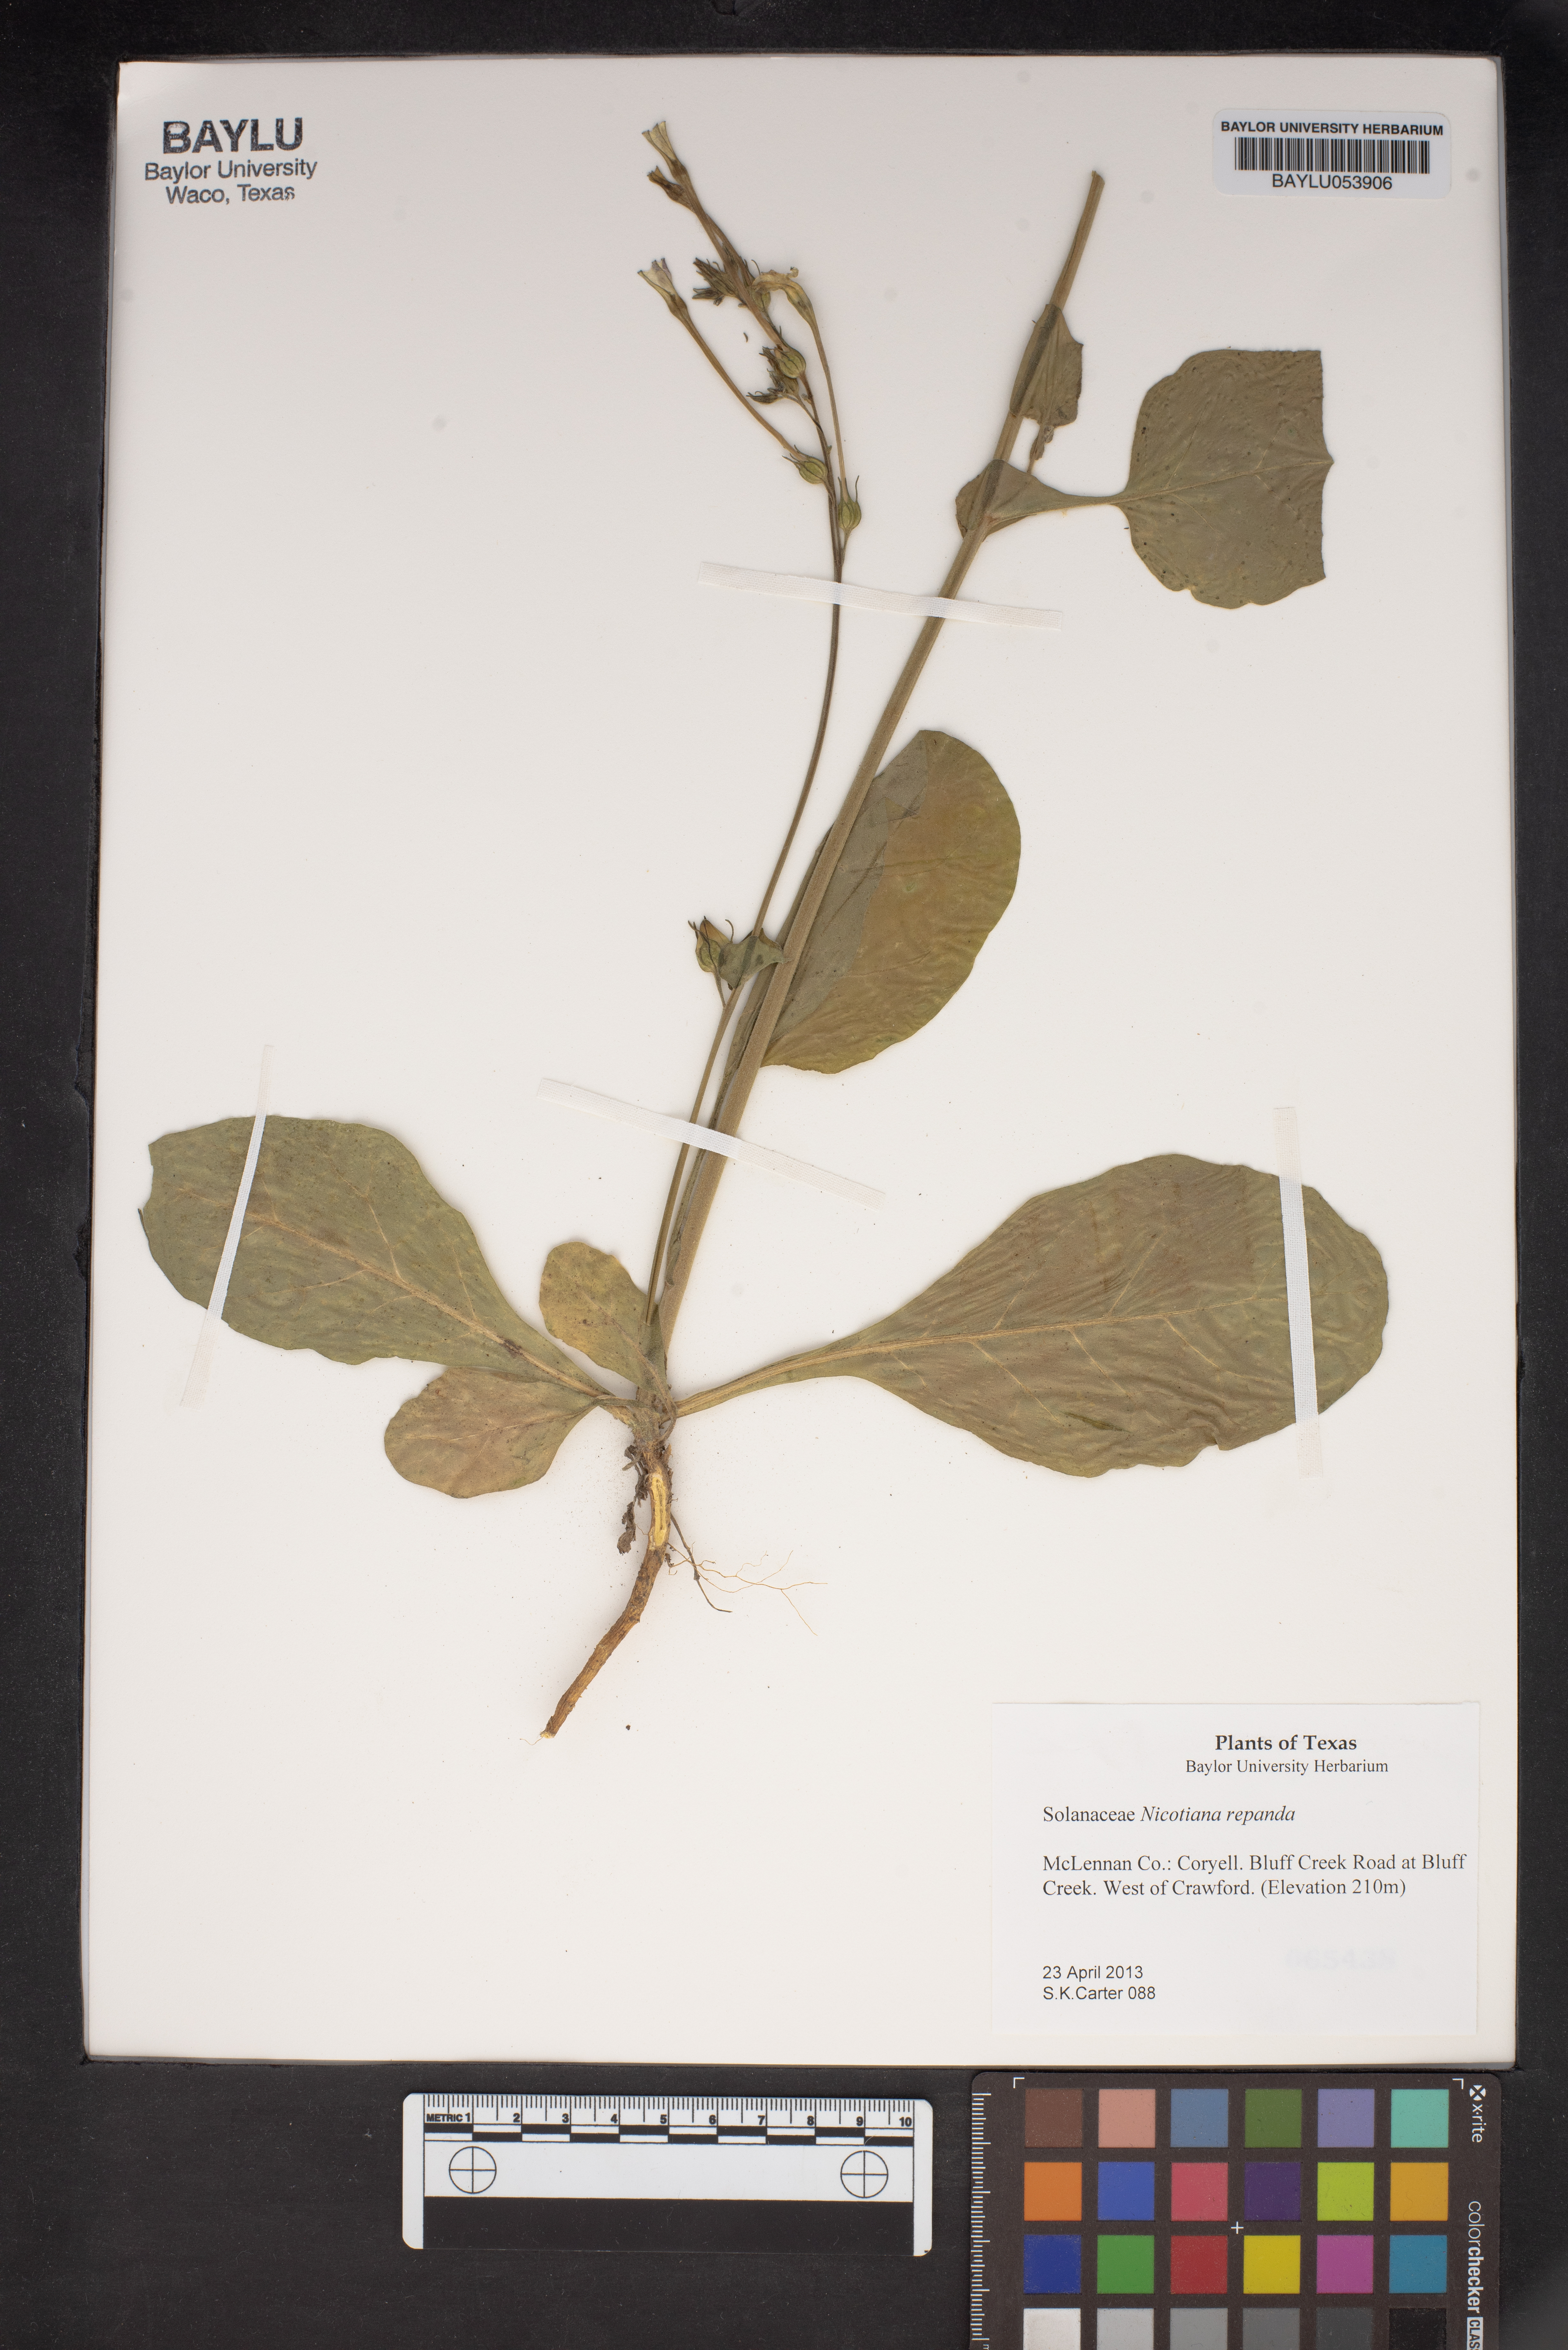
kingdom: Plantae
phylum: Tracheophyta
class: Magnoliopsida
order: Solanales
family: Solanaceae
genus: Nicotiana
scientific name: Nicotiana repanda
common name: Fiddle-leaf tobacco
